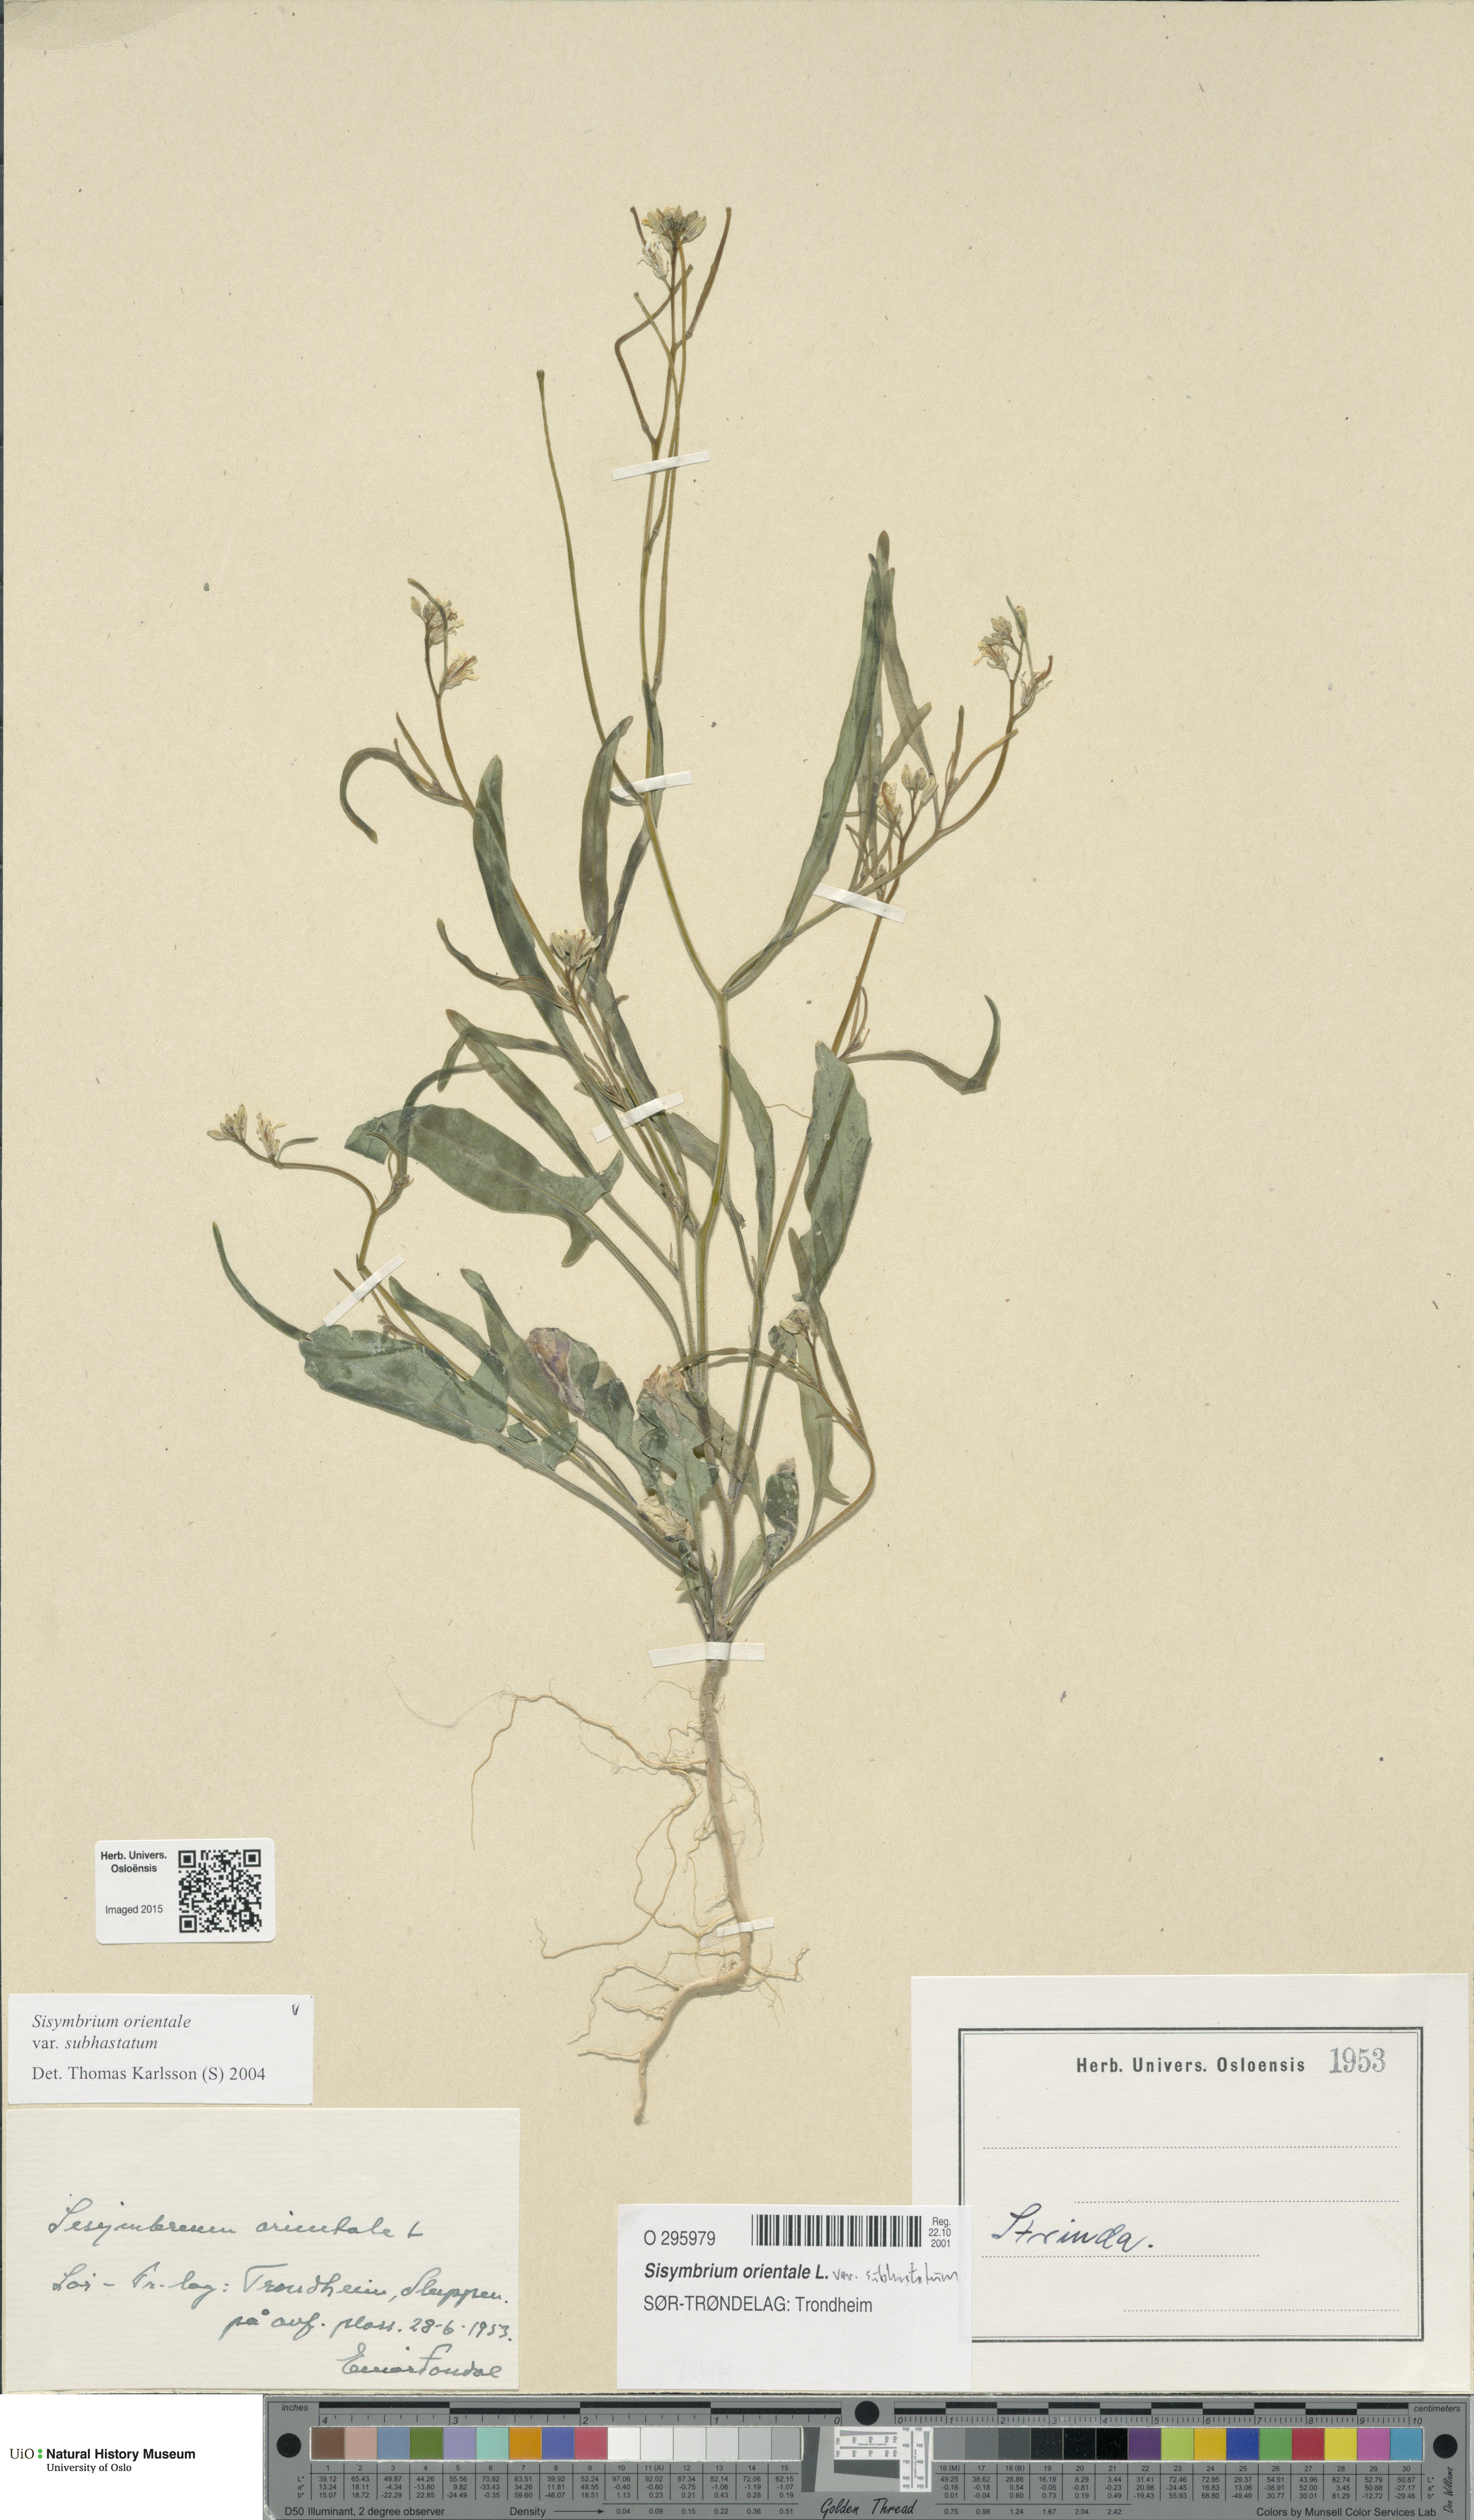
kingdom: Plantae
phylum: Tracheophyta
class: Magnoliopsida
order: Brassicales
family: Brassicaceae
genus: Sisymbrium
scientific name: Sisymbrium orientale
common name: Eastern rocket
